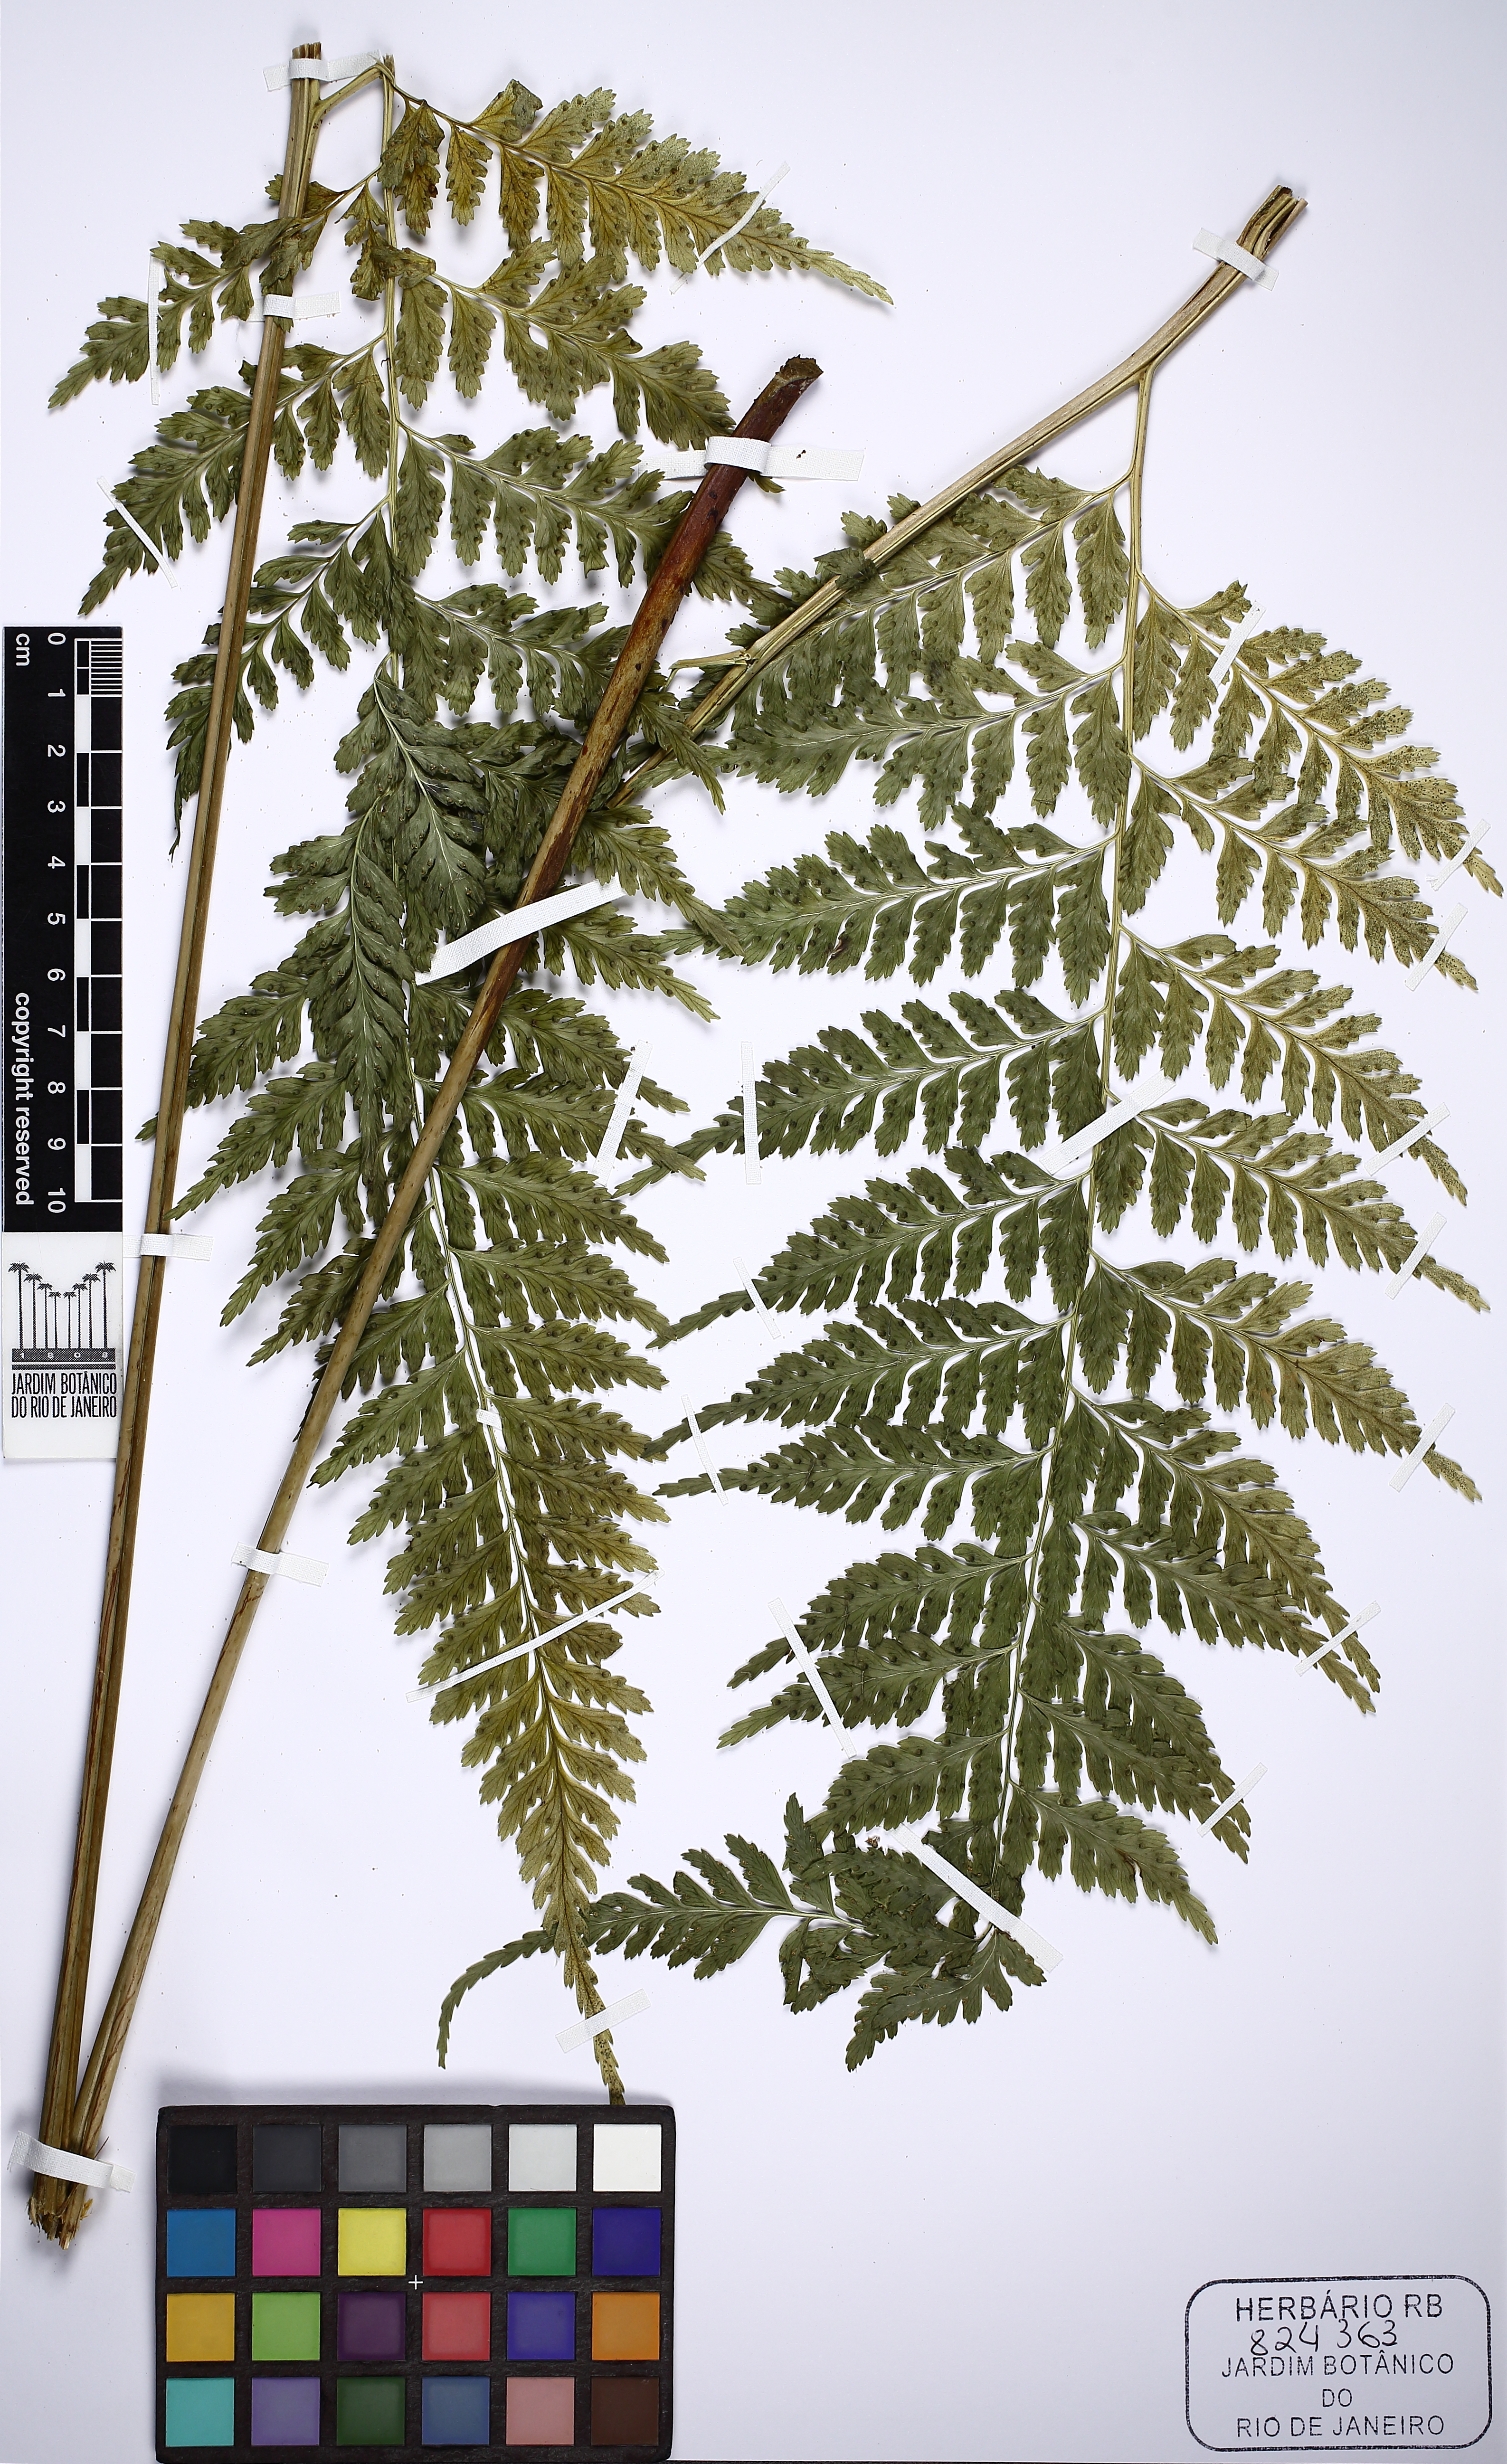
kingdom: Plantae
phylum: Tracheophyta
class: Polypodiopsida
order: Polypodiales
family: Saccolomataceae
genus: Saccoloma
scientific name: Saccoloma inaequale
